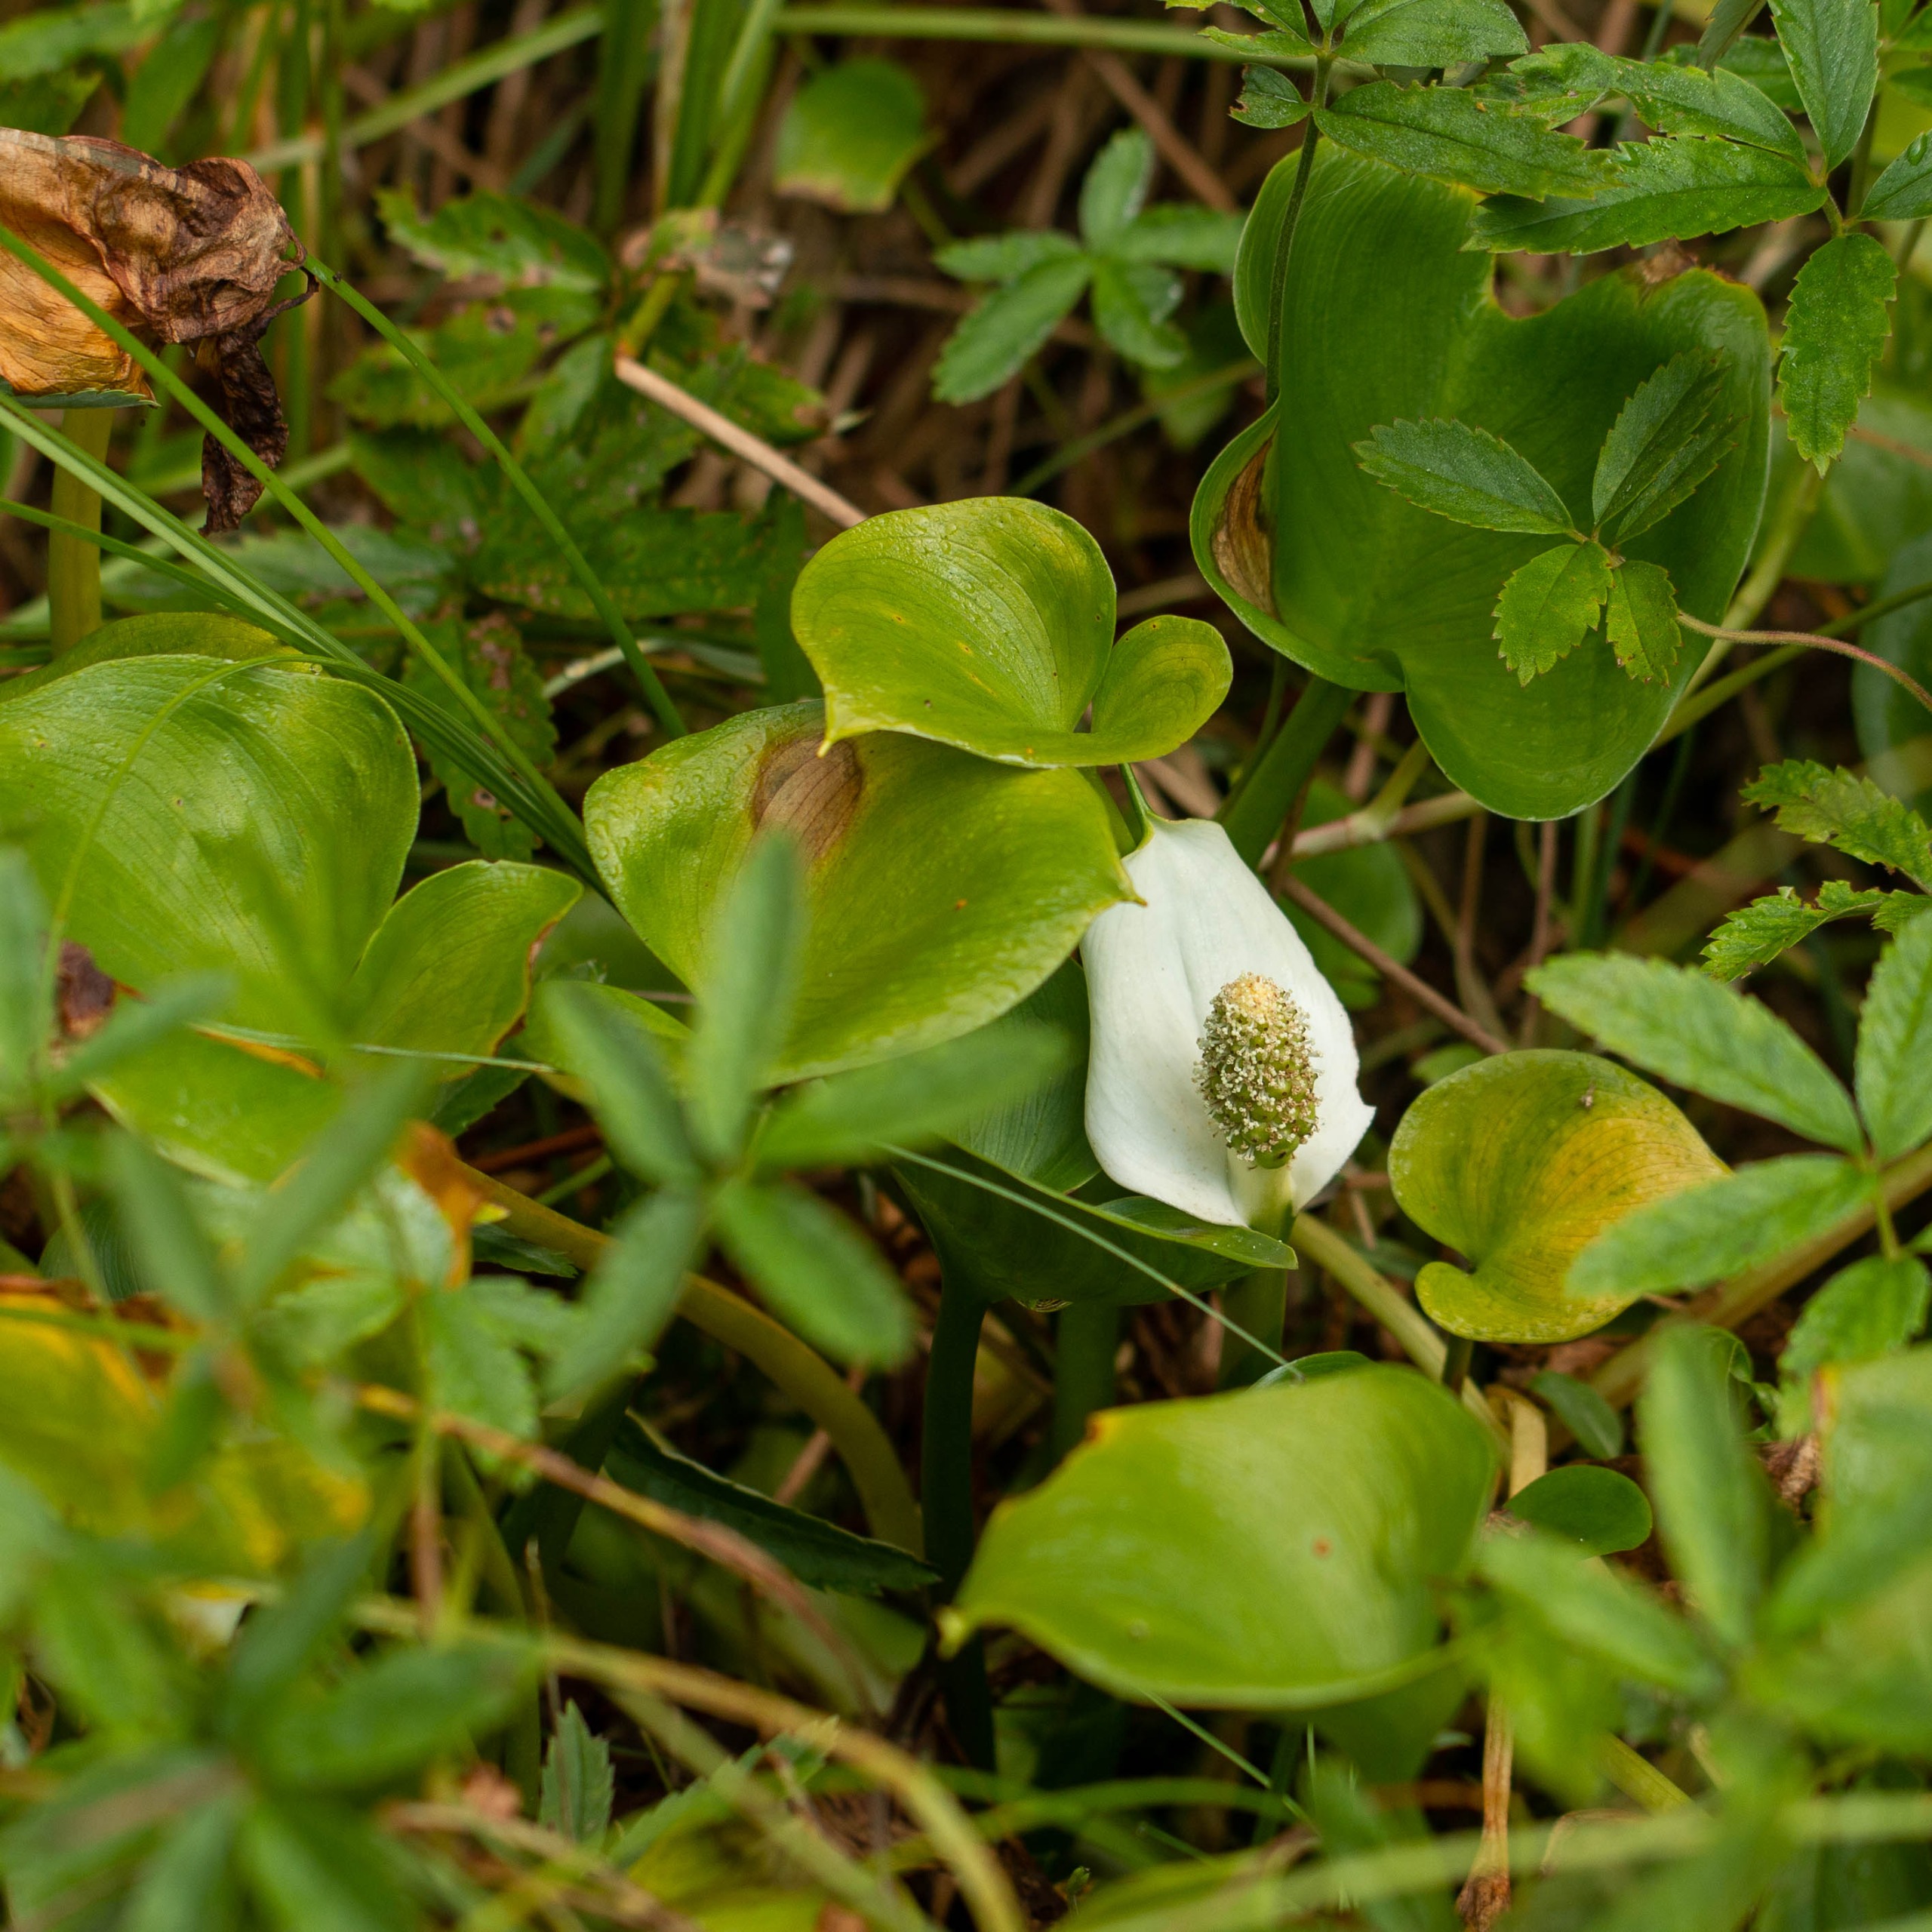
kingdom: Plantae
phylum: Tracheophyta
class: Liliopsida
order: Alismatales
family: Araceae
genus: Calla
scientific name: Calla palustris
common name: Kærmysse
